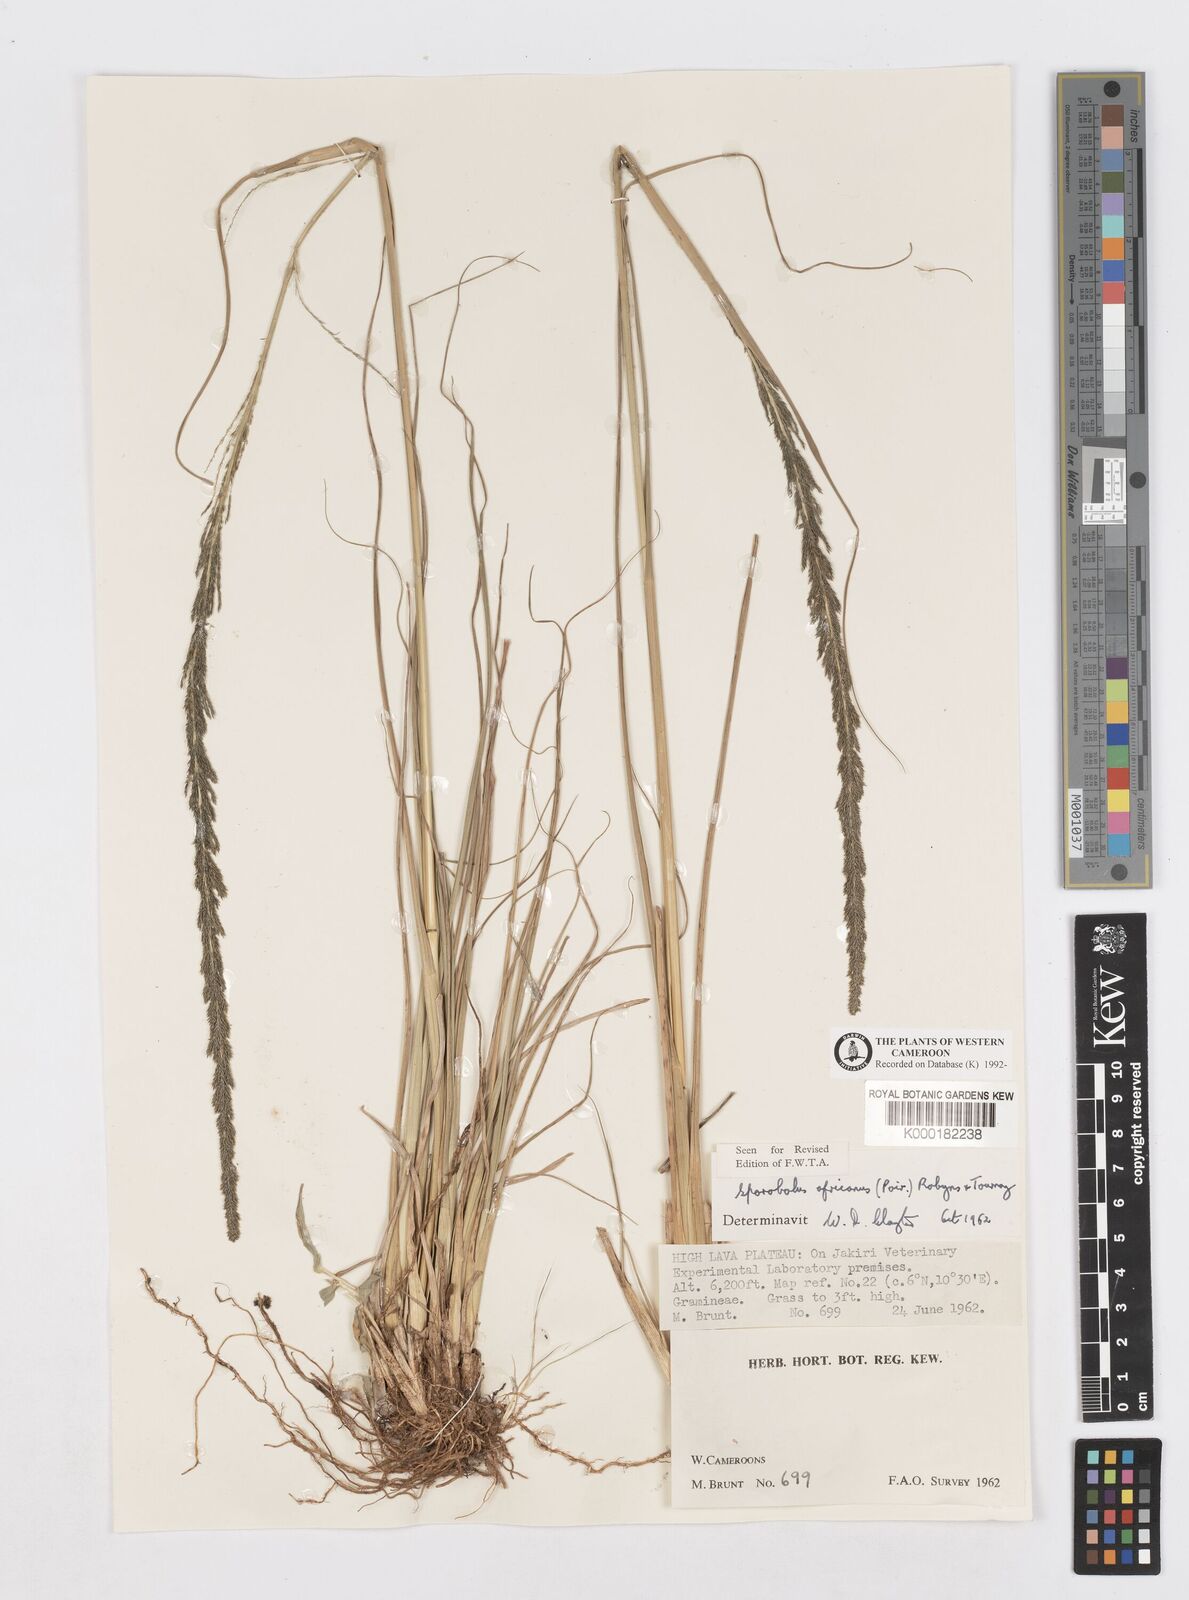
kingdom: Plantae
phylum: Tracheophyta
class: Liliopsida
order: Poales
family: Poaceae
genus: Sporobolus
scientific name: Sporobolus africanus
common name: African dropseed
